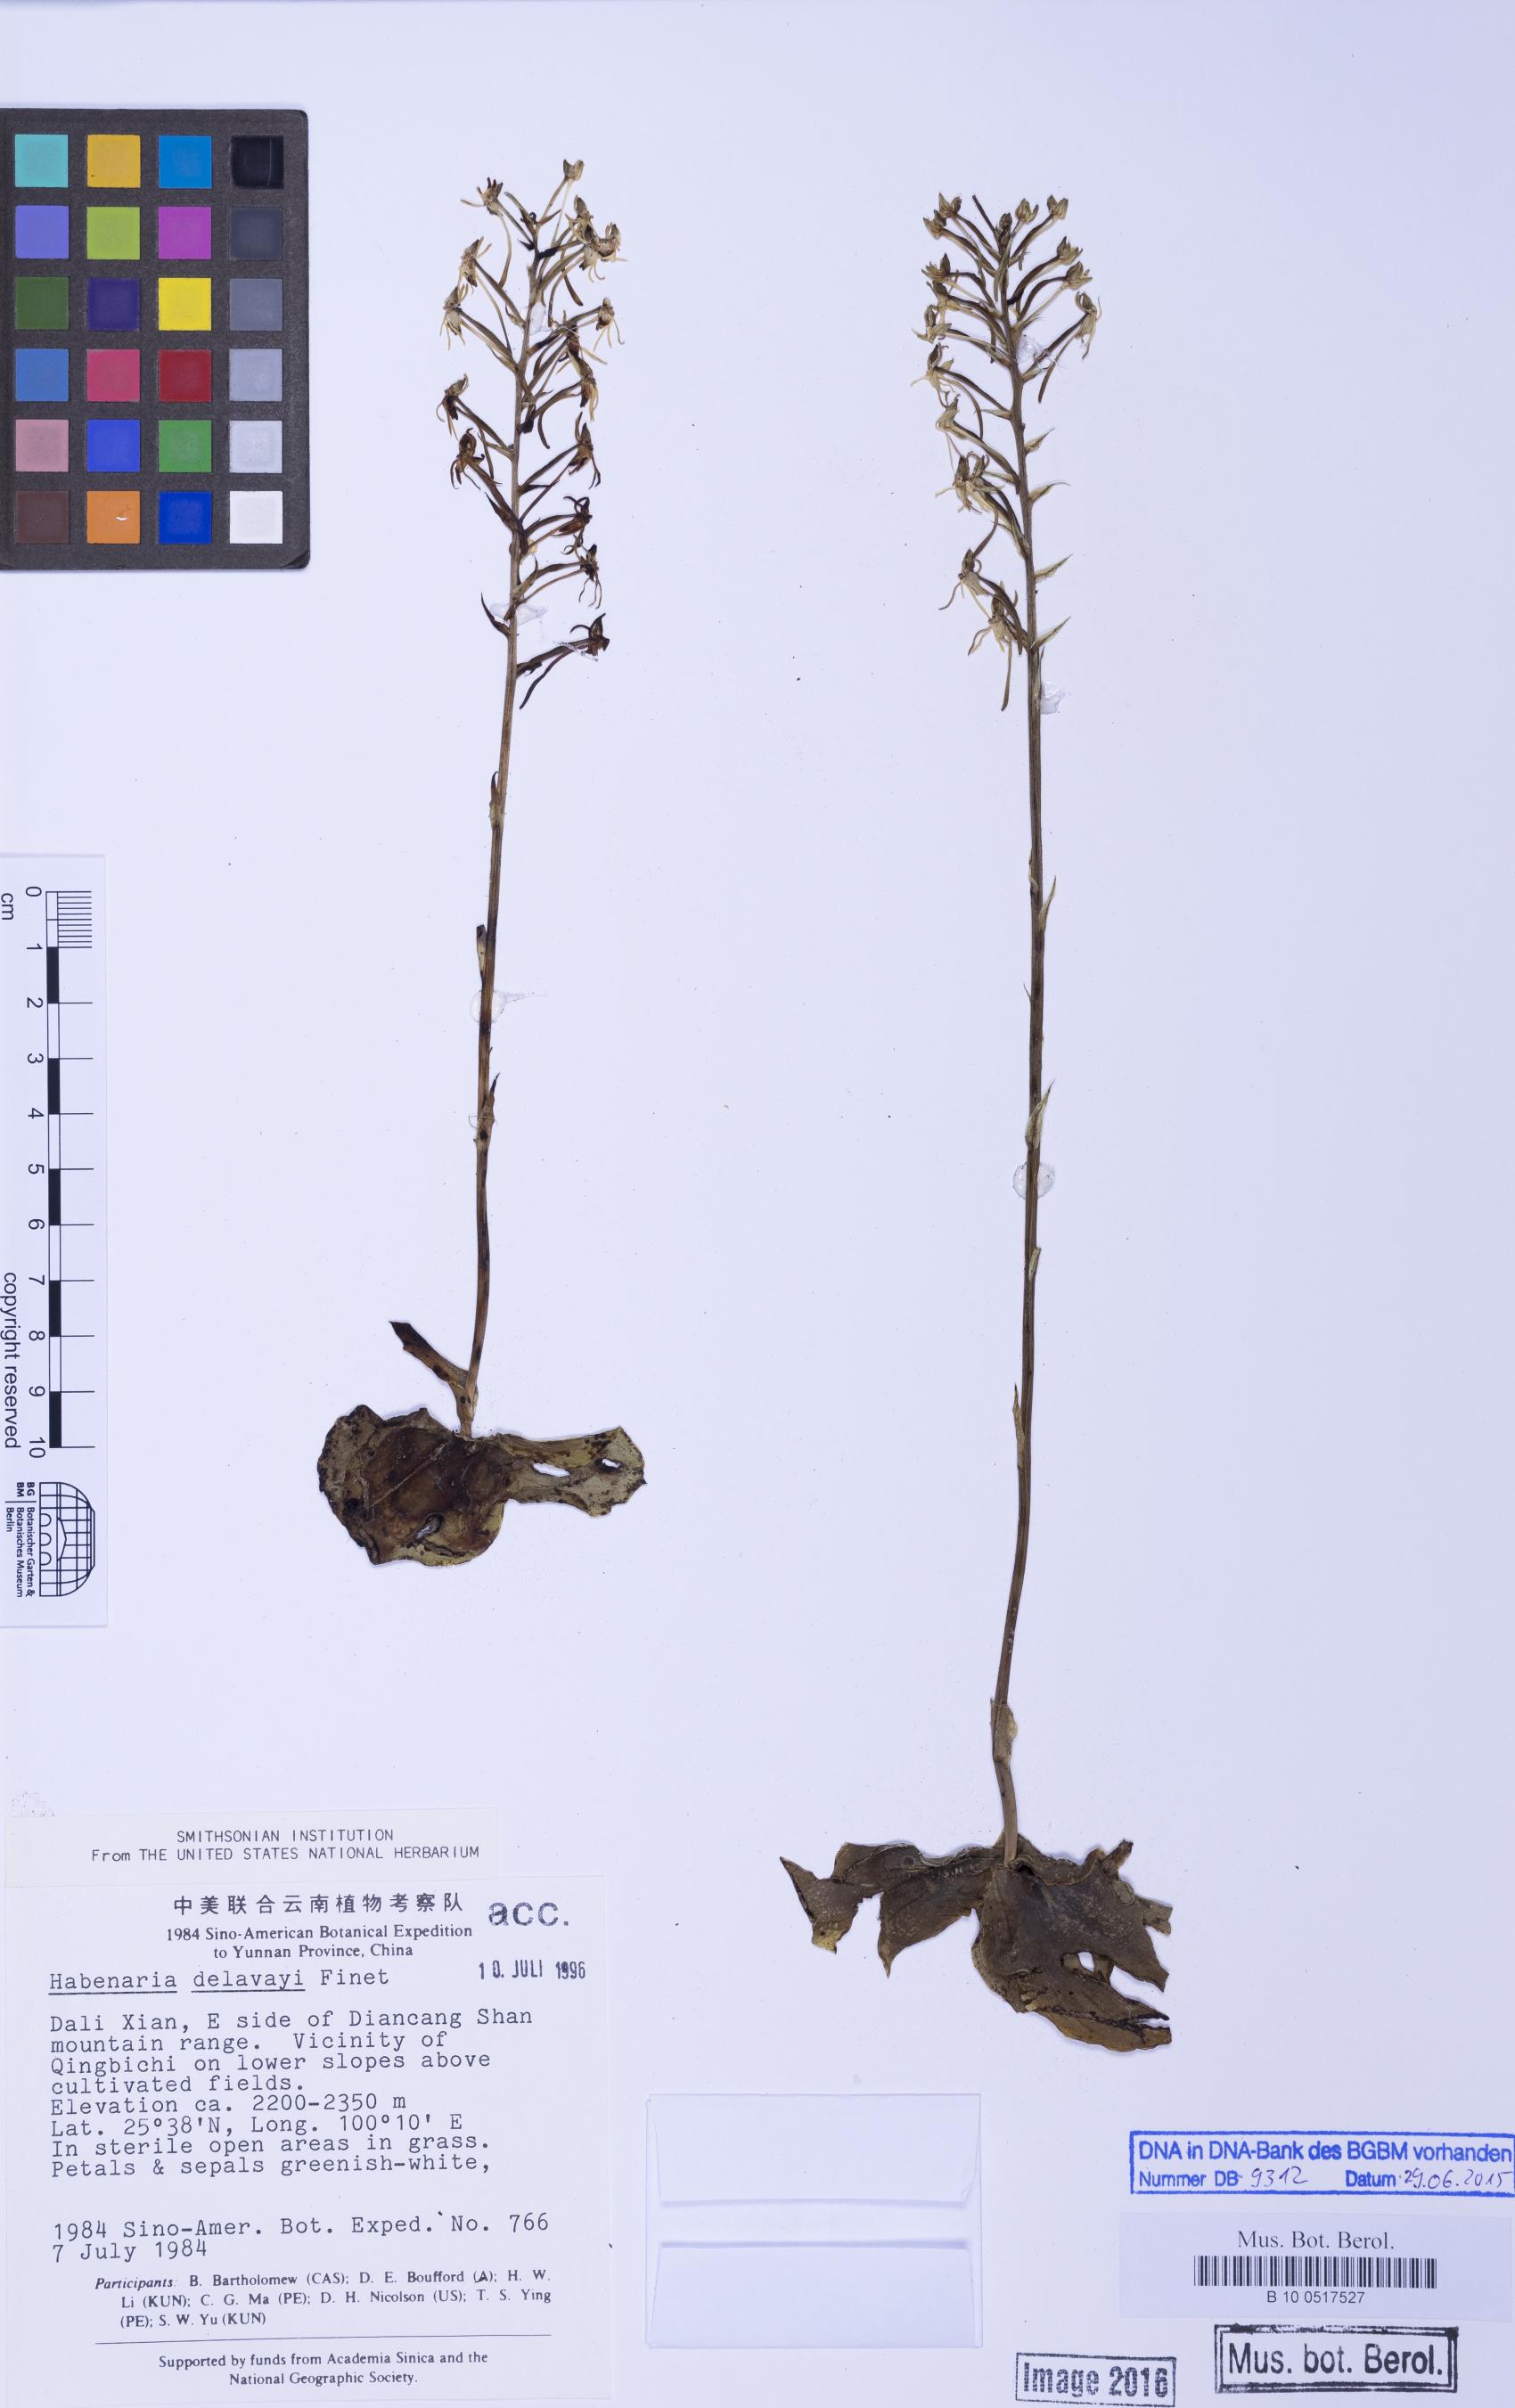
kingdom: Plantae
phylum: Tracheophyta
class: Liliopsida
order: Asparagales
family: Orchidaceae
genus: Habenaria
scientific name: Habenaria delavayi
